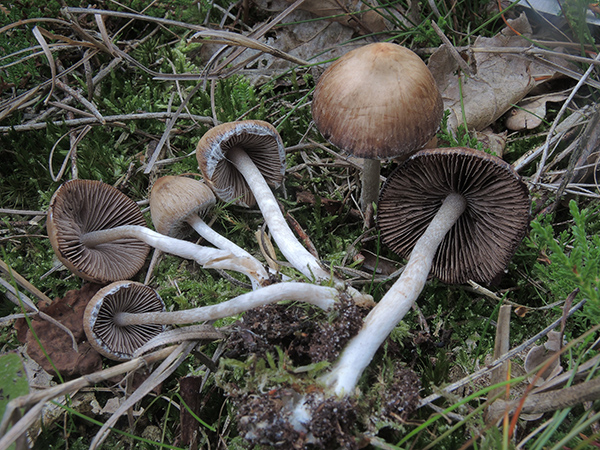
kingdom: Fungi
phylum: Basidiomycota
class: Agaricomycetes
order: Agaricales
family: Psathyrellaceae
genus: Psathyrella
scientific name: Psathyrella impexa
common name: rødmende mørkhat
